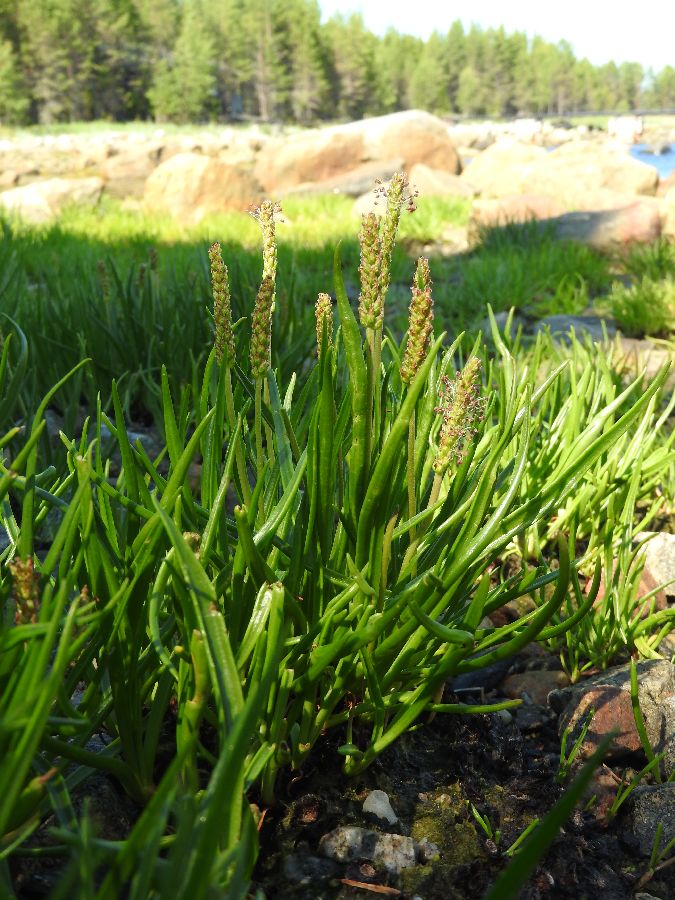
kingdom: Plantae
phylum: Tracheophyta
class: Magnoliopsida
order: Lamiales
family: Plantaginaceae
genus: Plantago
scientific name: Plantago maritima
